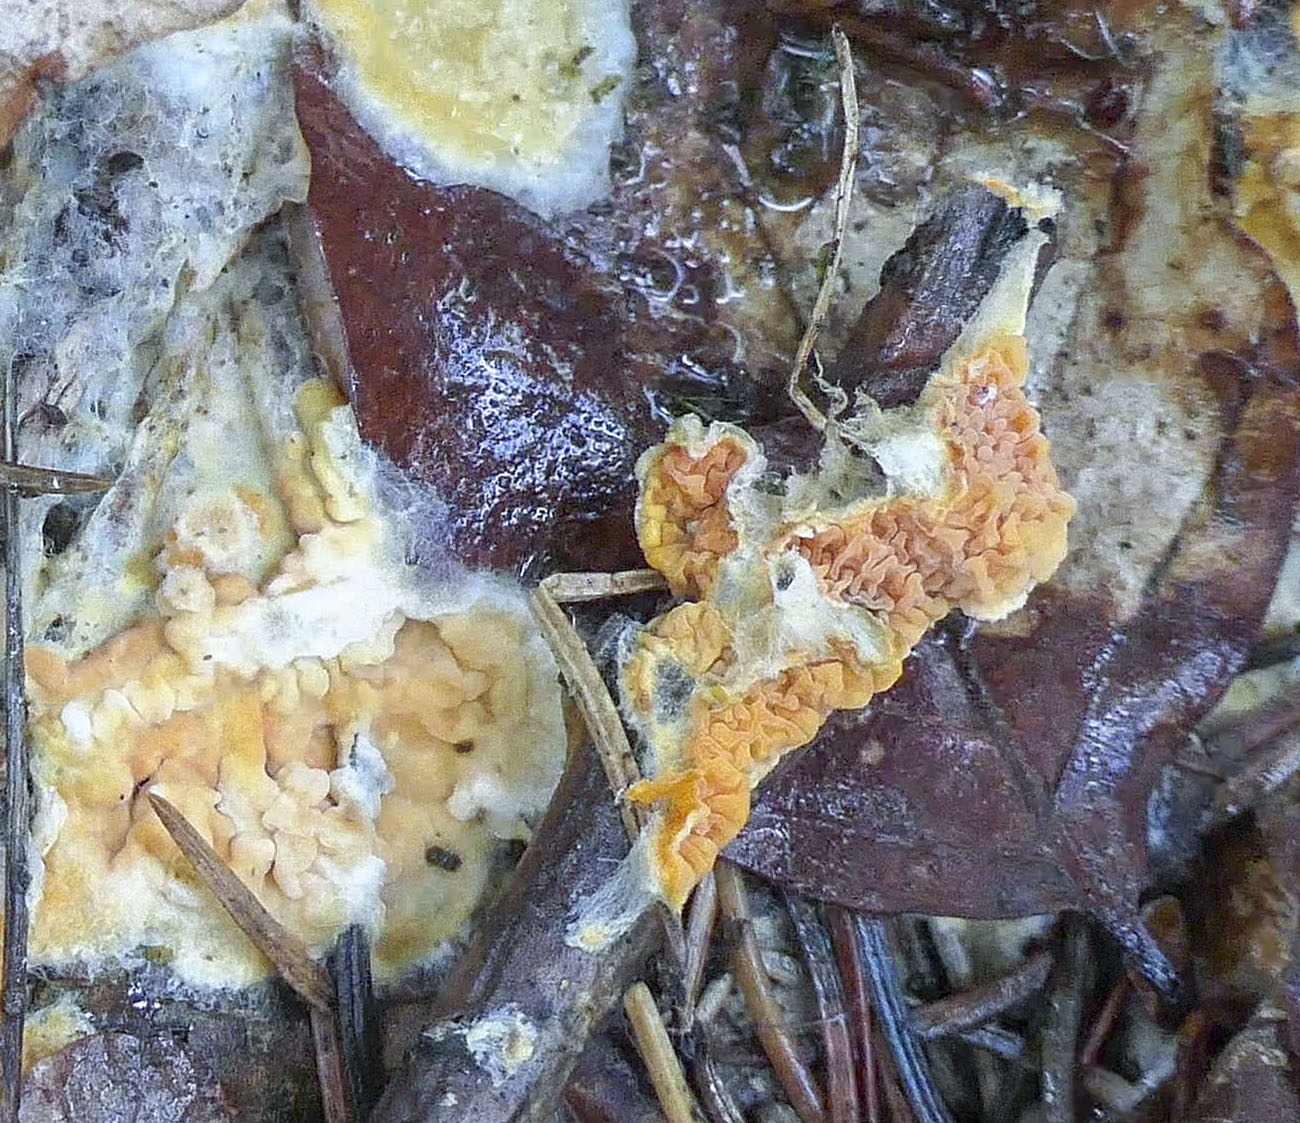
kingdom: Fungi
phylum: Basidiomycota
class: Agaricomycetes
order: Boletales
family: Hygrophoropsidaceae
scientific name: Hygrophoropsidaceae
